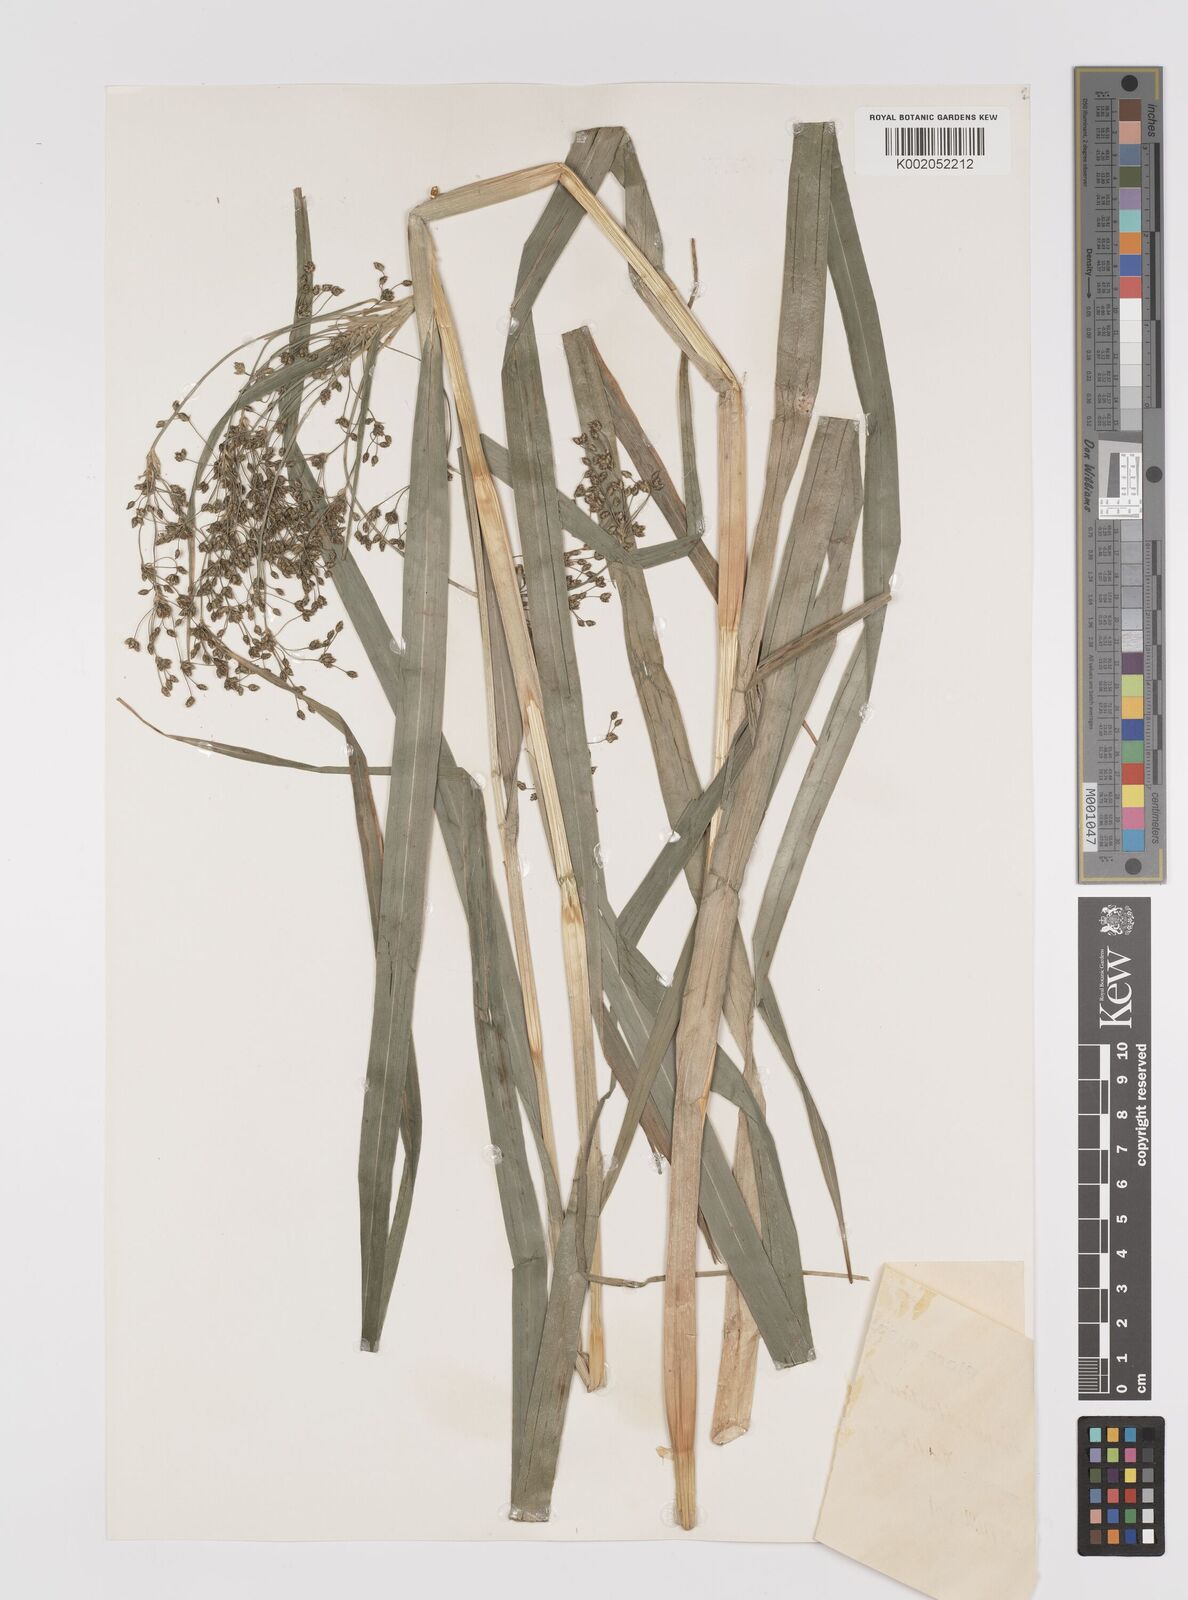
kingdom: Plantae
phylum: Tracheophyta
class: Liliopsida
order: Poales
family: Cyperaceae
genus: Scirpus
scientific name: Scirpus sylvaticus
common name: Wood club-rush
